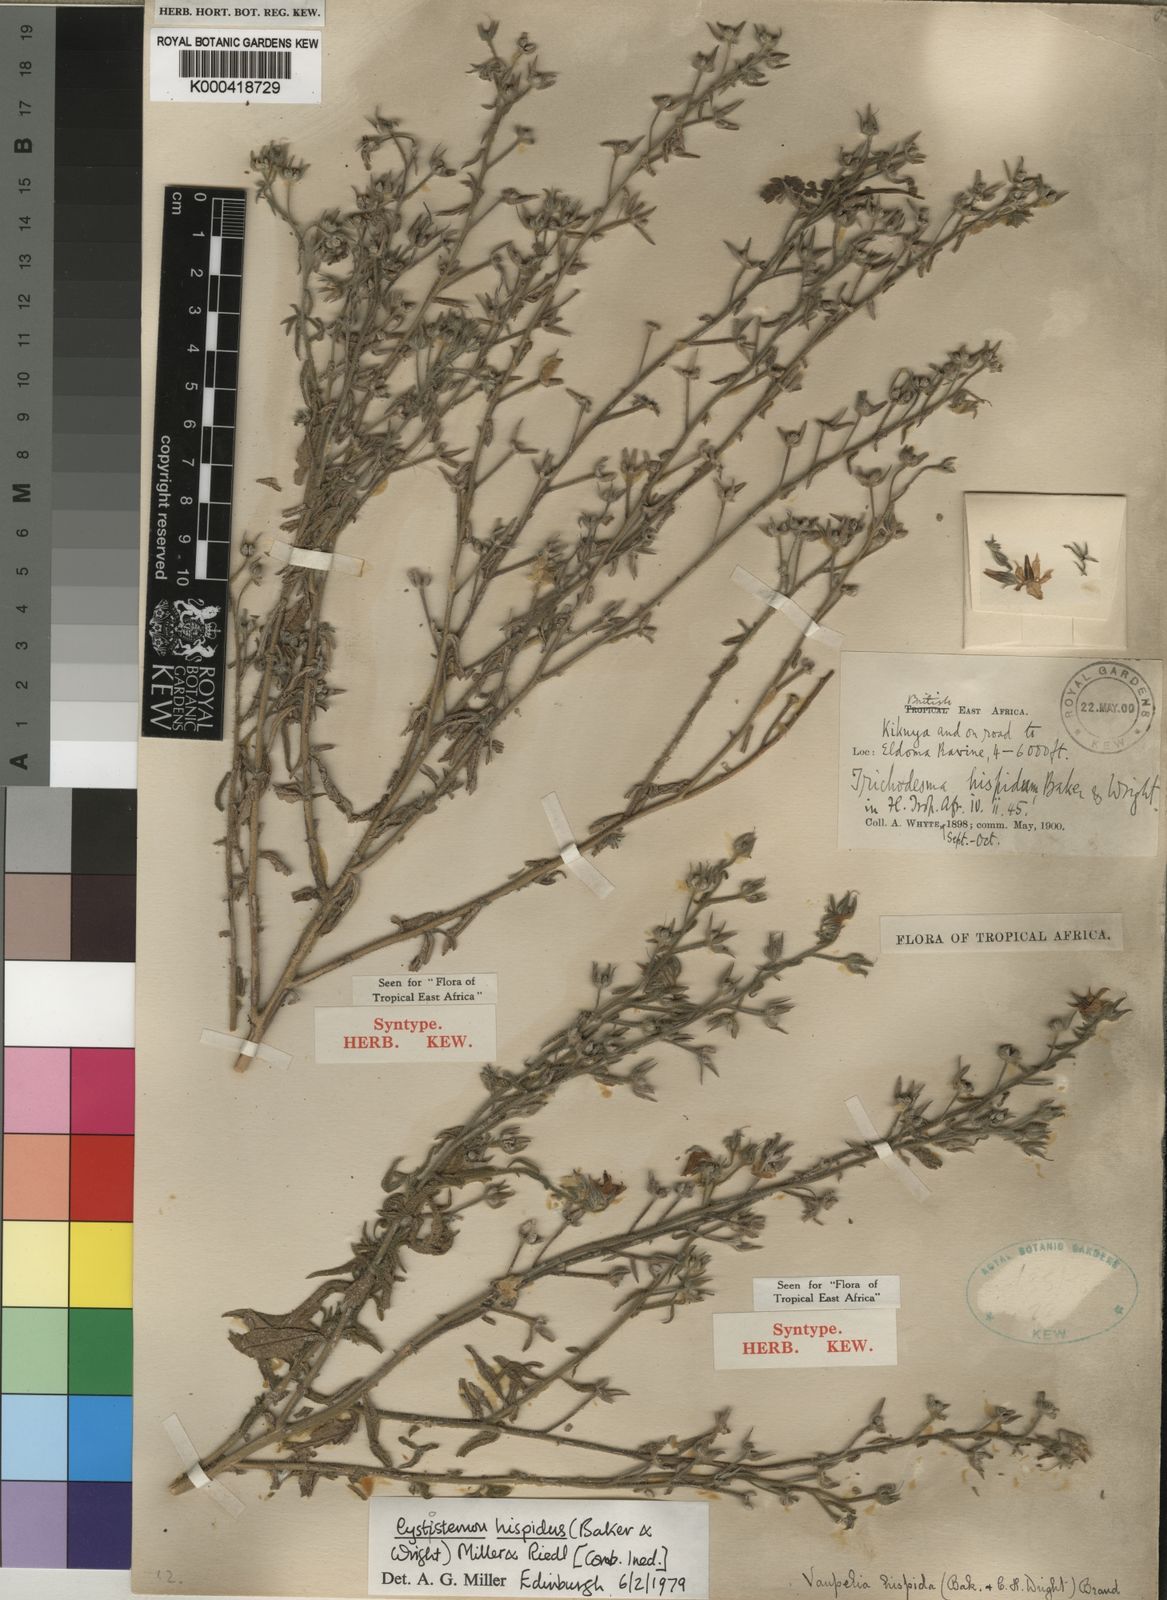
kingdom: Plantae
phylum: Tracheophyta
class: Magnoliopsida
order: Boraginales
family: Boraginaceae
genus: Cystostemon
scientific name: Cystostemon hispidus
